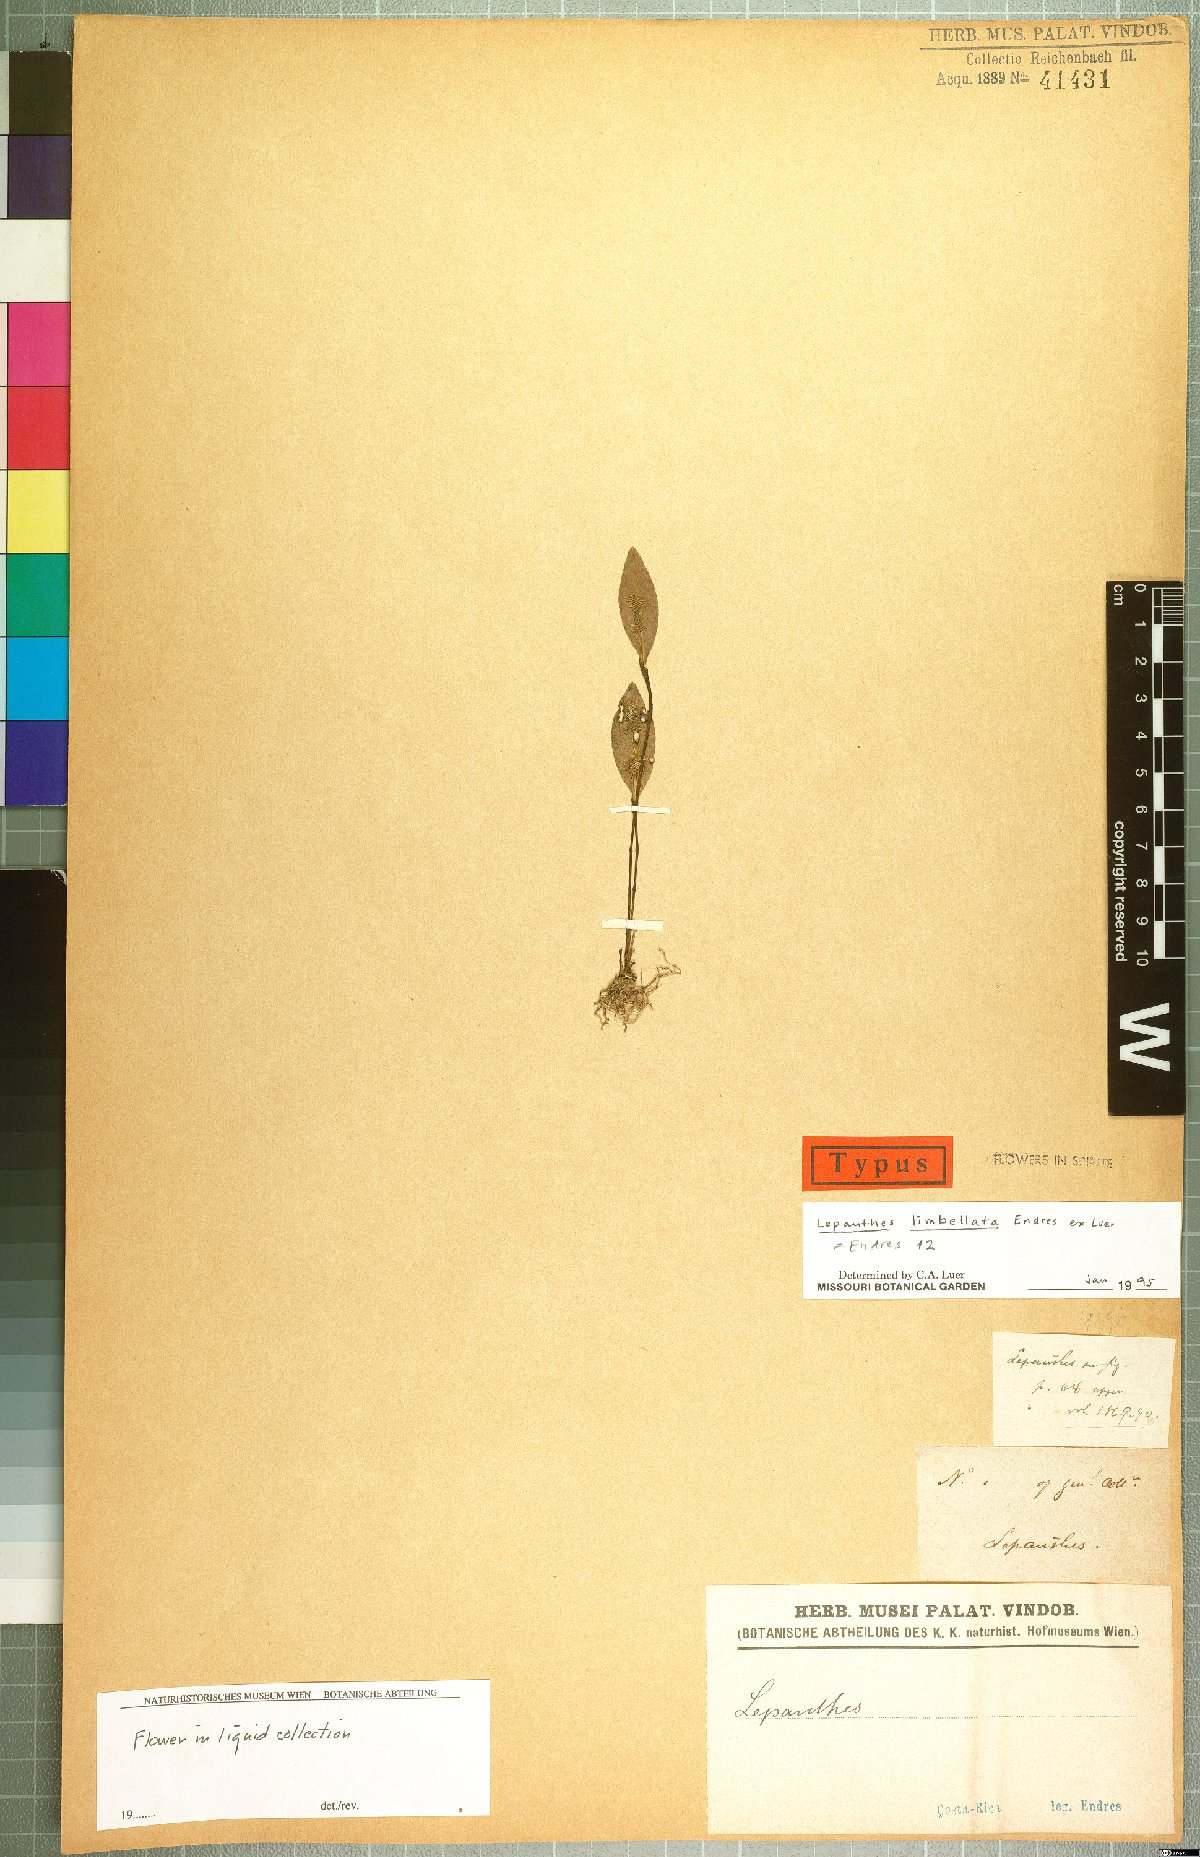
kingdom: Plantae
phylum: Tracheophyta
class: Liliopsida
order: Asparagales
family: Orchidaceae
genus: Lepanthes
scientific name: Lepanthes limbellata
